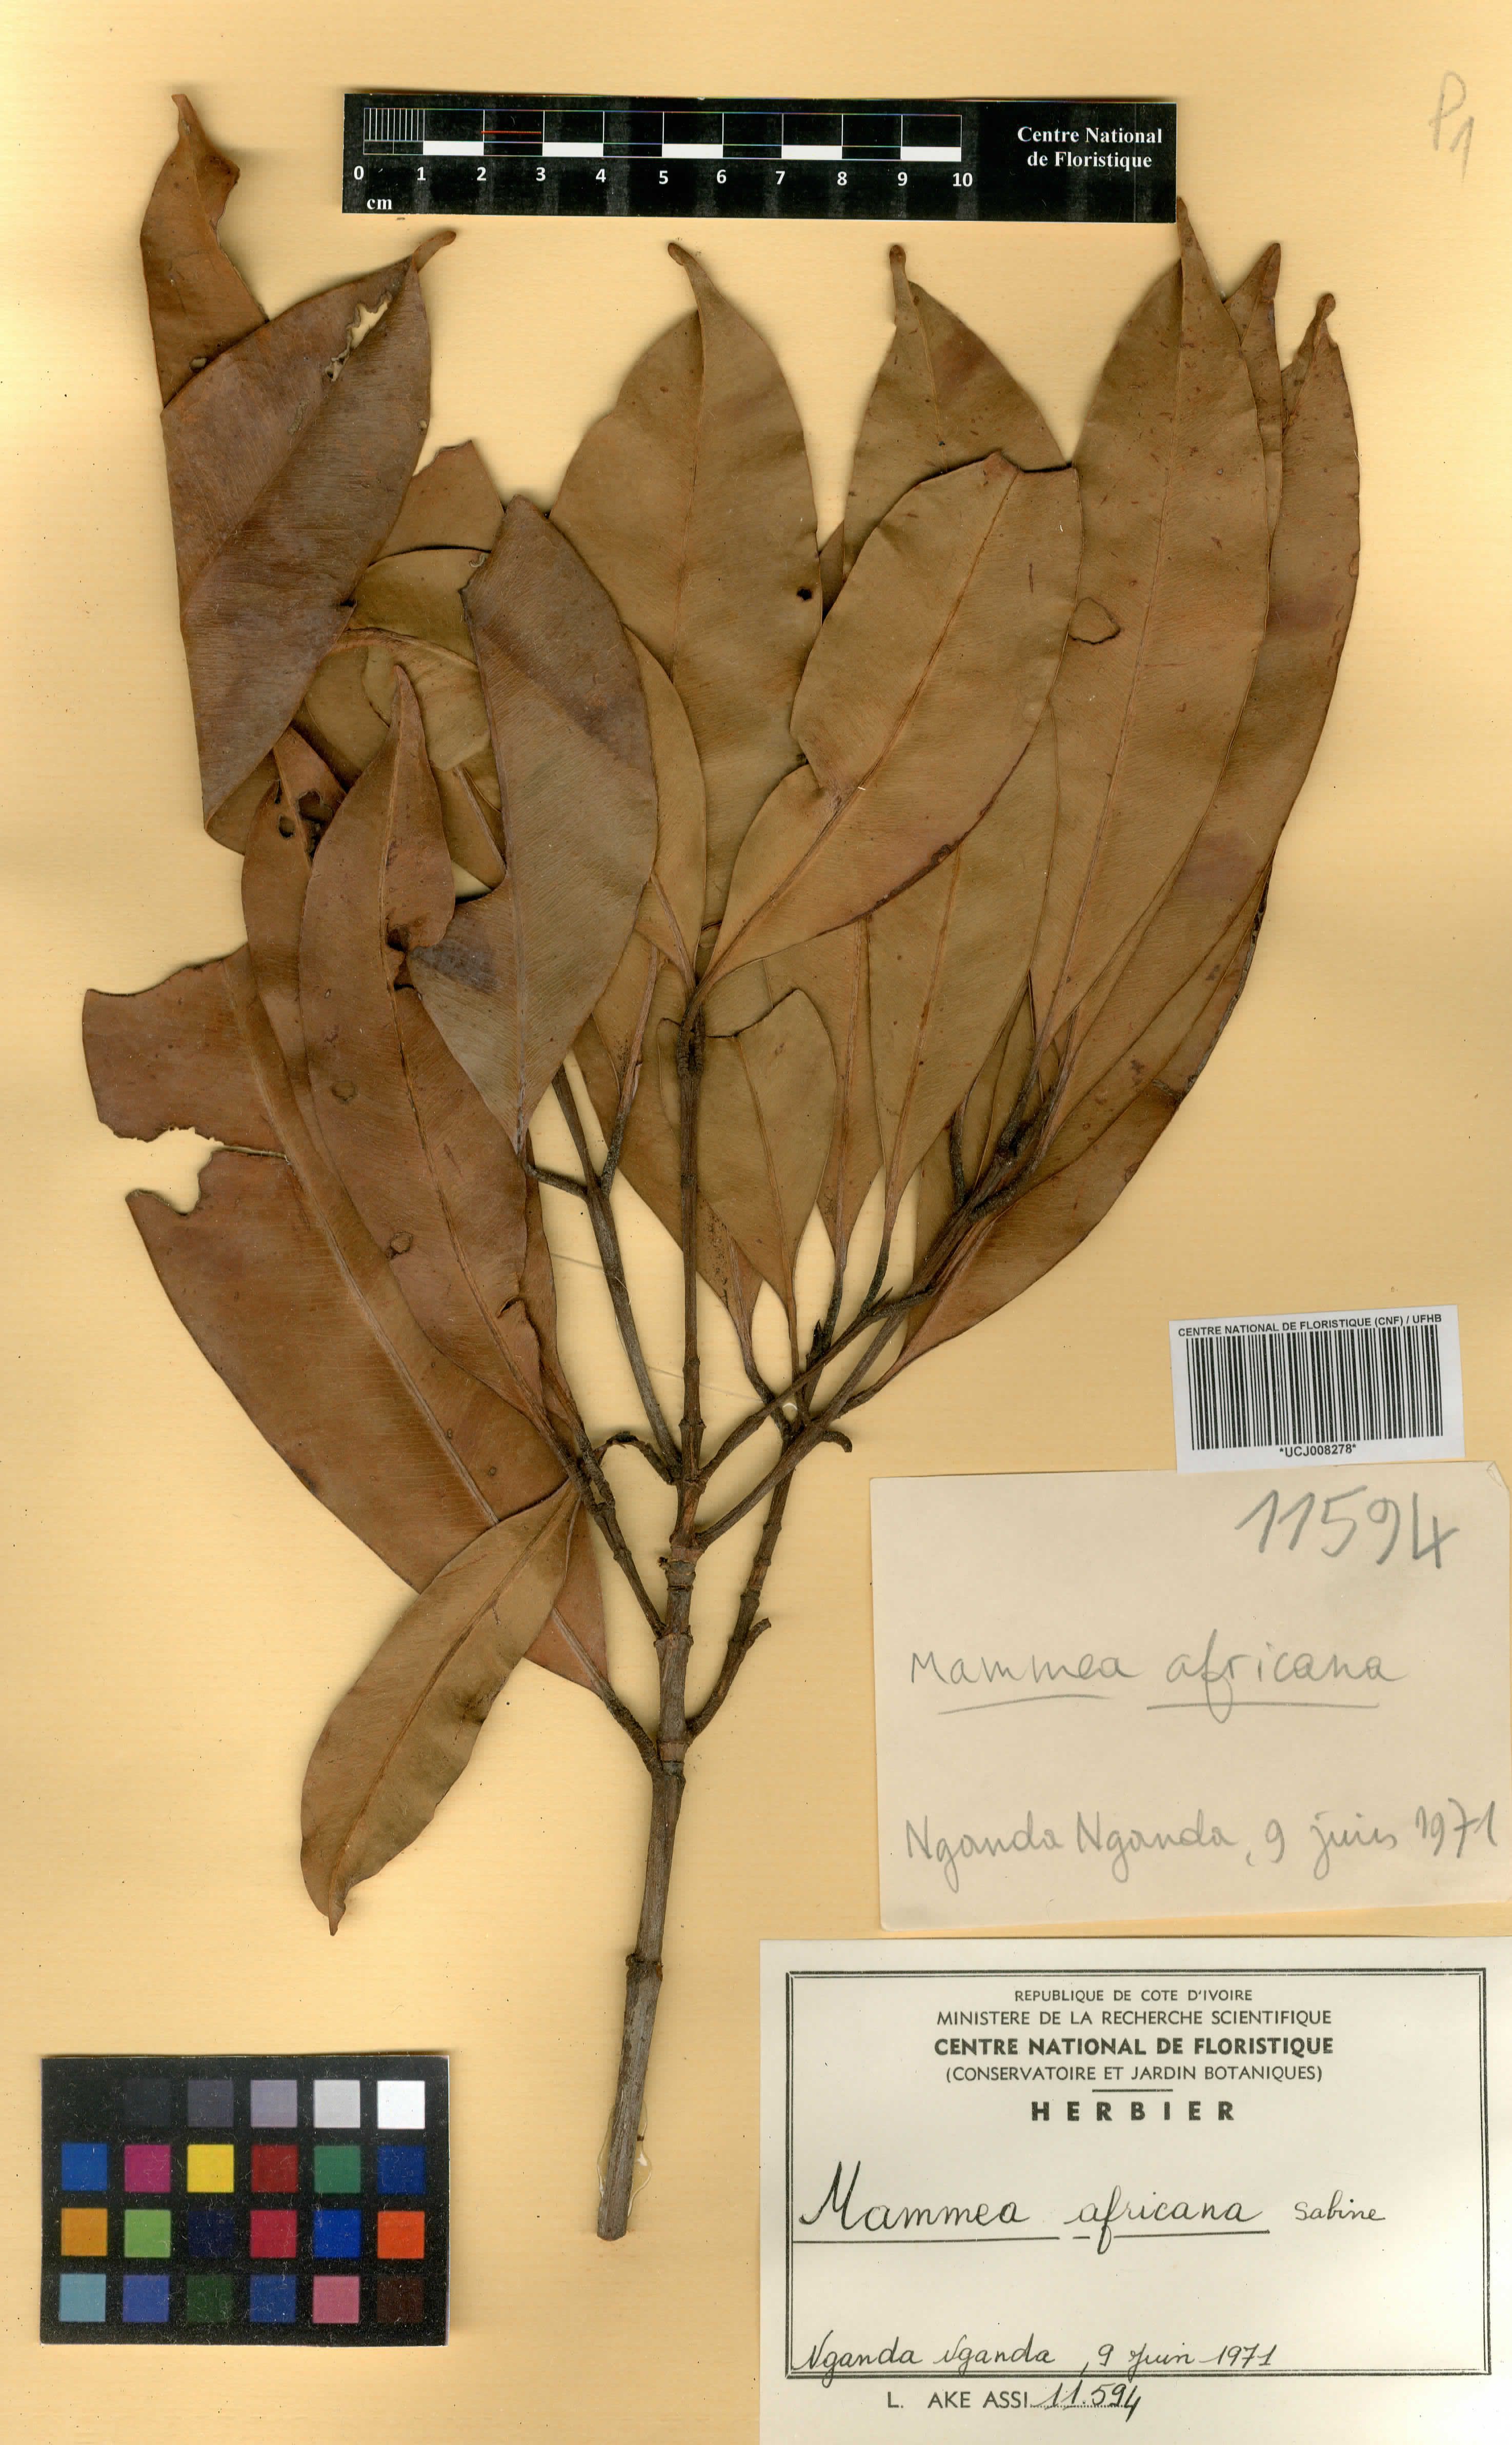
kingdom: Plantae
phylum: Tracheophyta
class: Magnoliopsida
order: Malpighiales
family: Calophyllaceae
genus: Mammea
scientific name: Mammea africana
